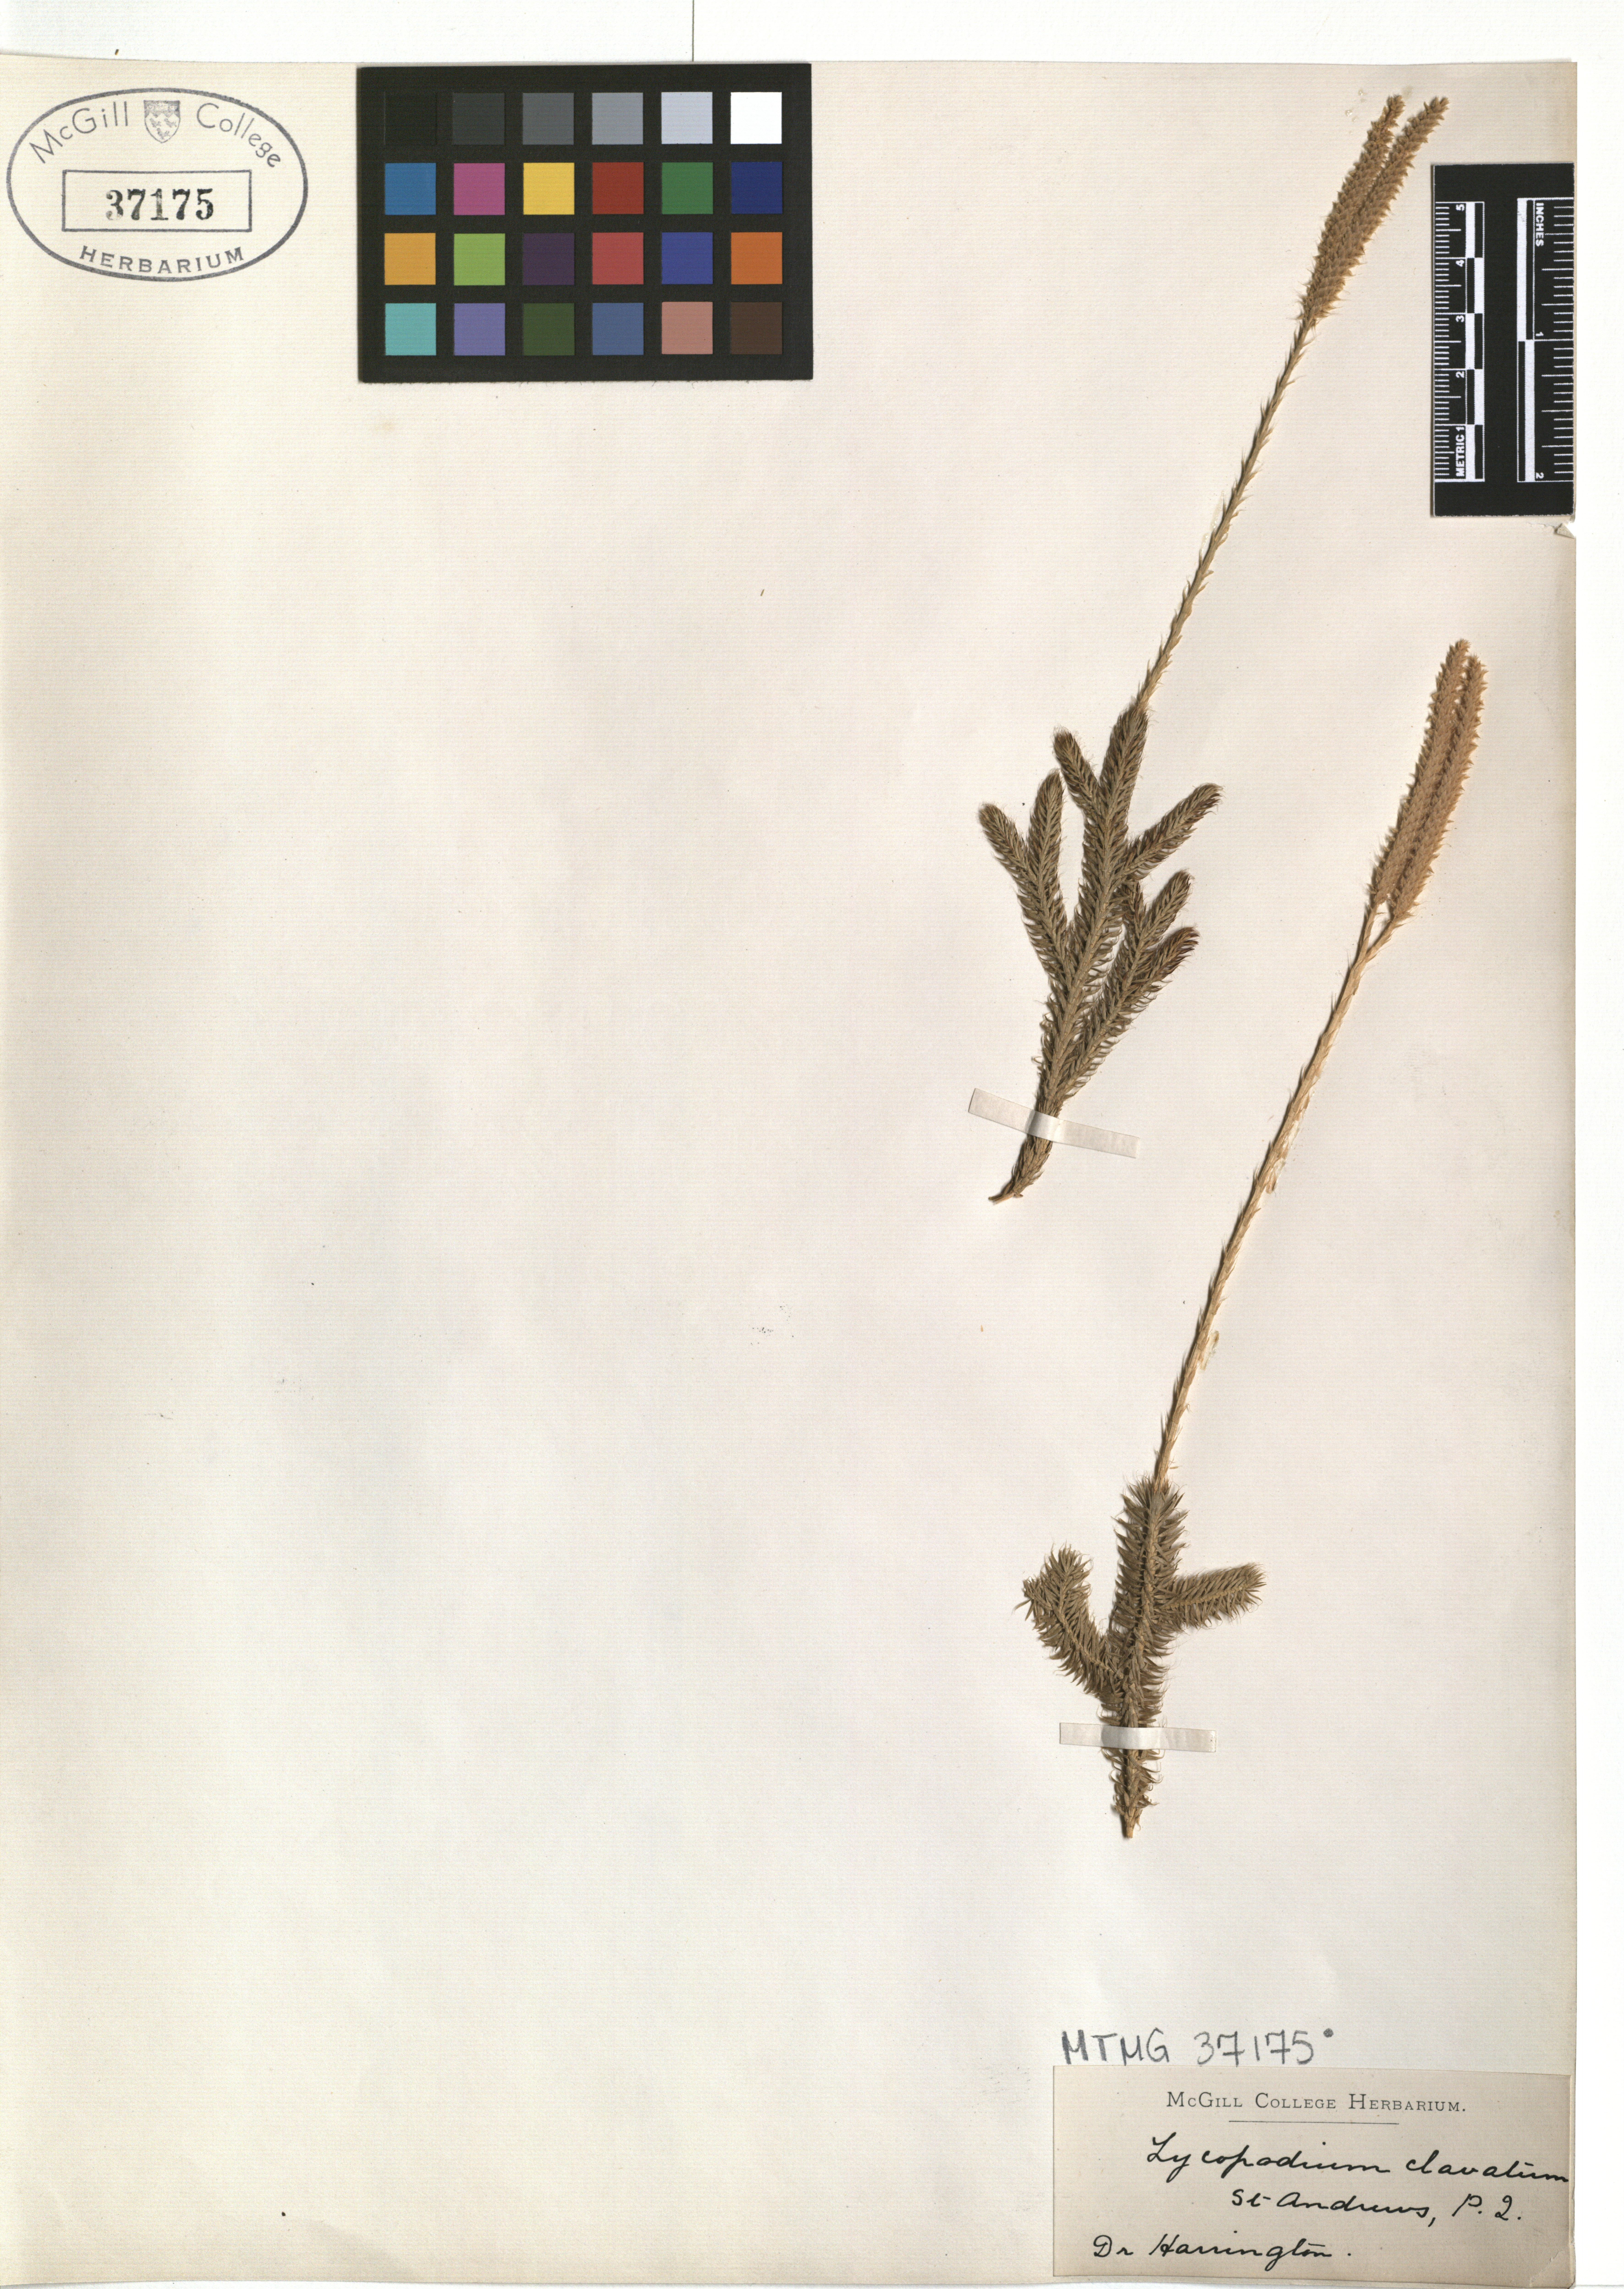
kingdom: Plantae
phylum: Tracheophyta
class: Lycopodiopsida
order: Lycopodiales
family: Lycopodiaceae
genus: Lycopodium
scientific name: Lycopodium clavatum
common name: Stag's-horn clubmoss
